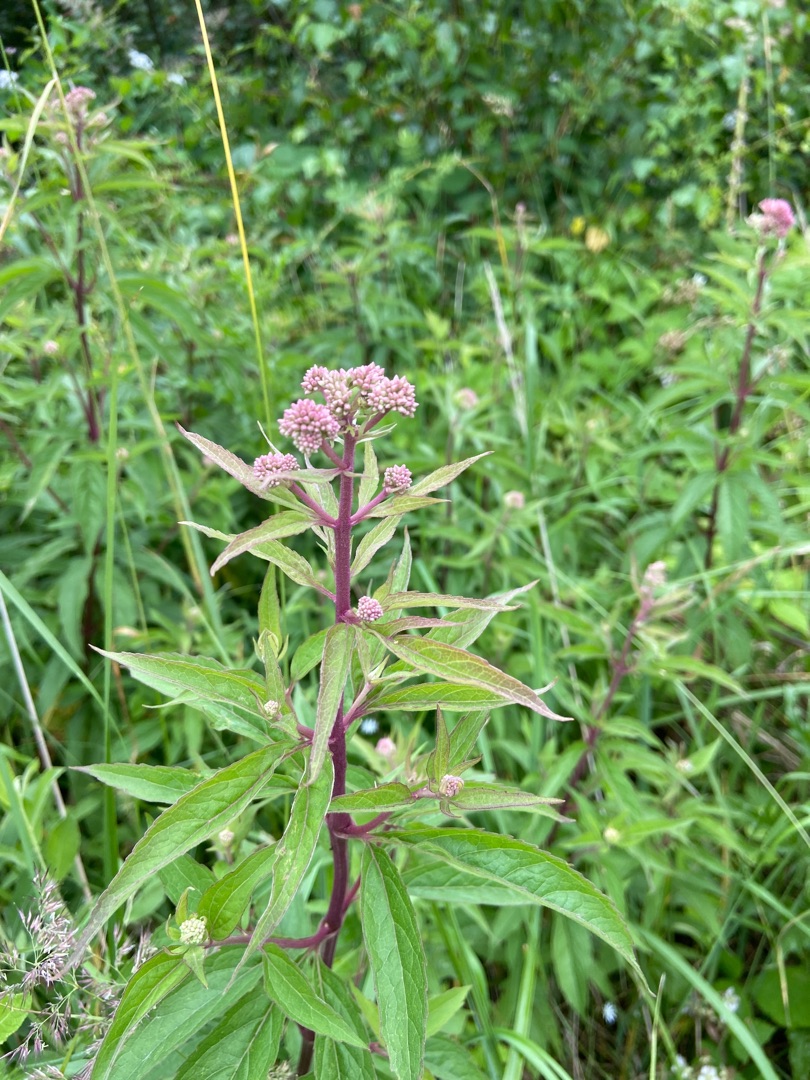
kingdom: Plantae
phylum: Tracheophyta
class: Magnoliopsida
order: Asterales
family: Asteraceae
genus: Eupatorium
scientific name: Eupatorium cannabinum
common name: Hjortetrøst
